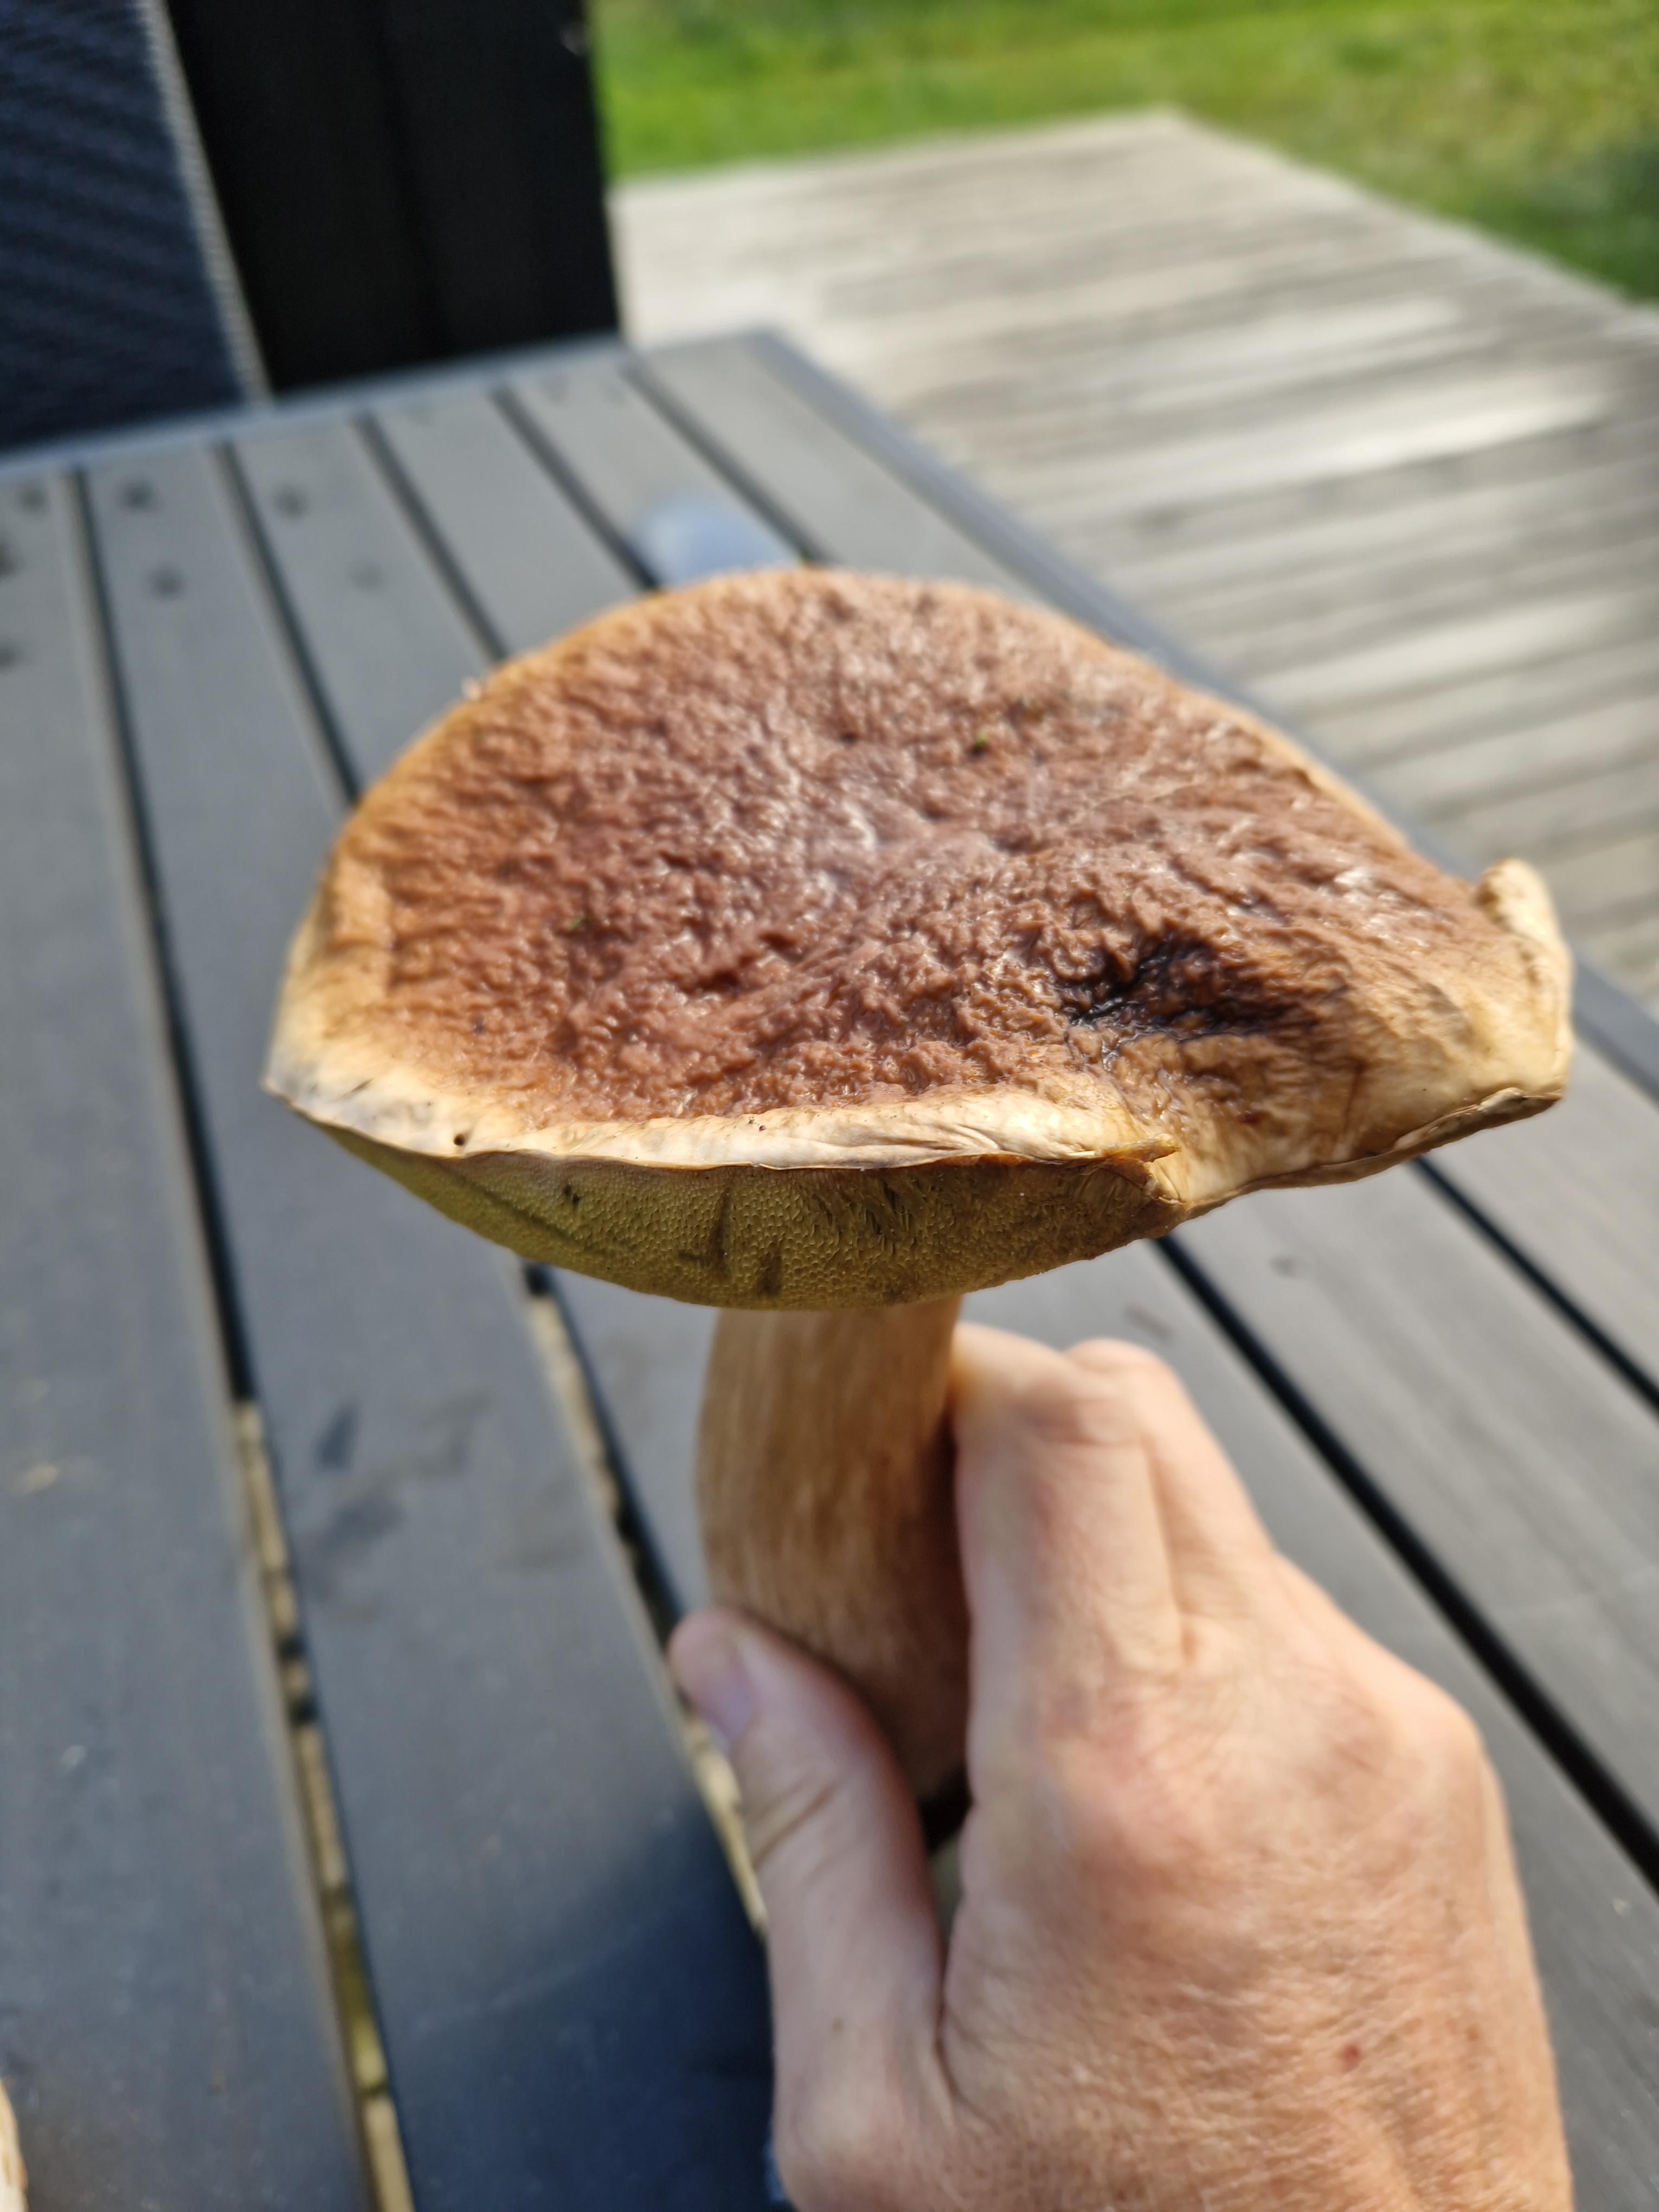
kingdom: Fungi
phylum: Basidiomycota
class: Agaricomycetes
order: Boletales
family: Boletaceae
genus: Boletus
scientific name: Boletus edulis
